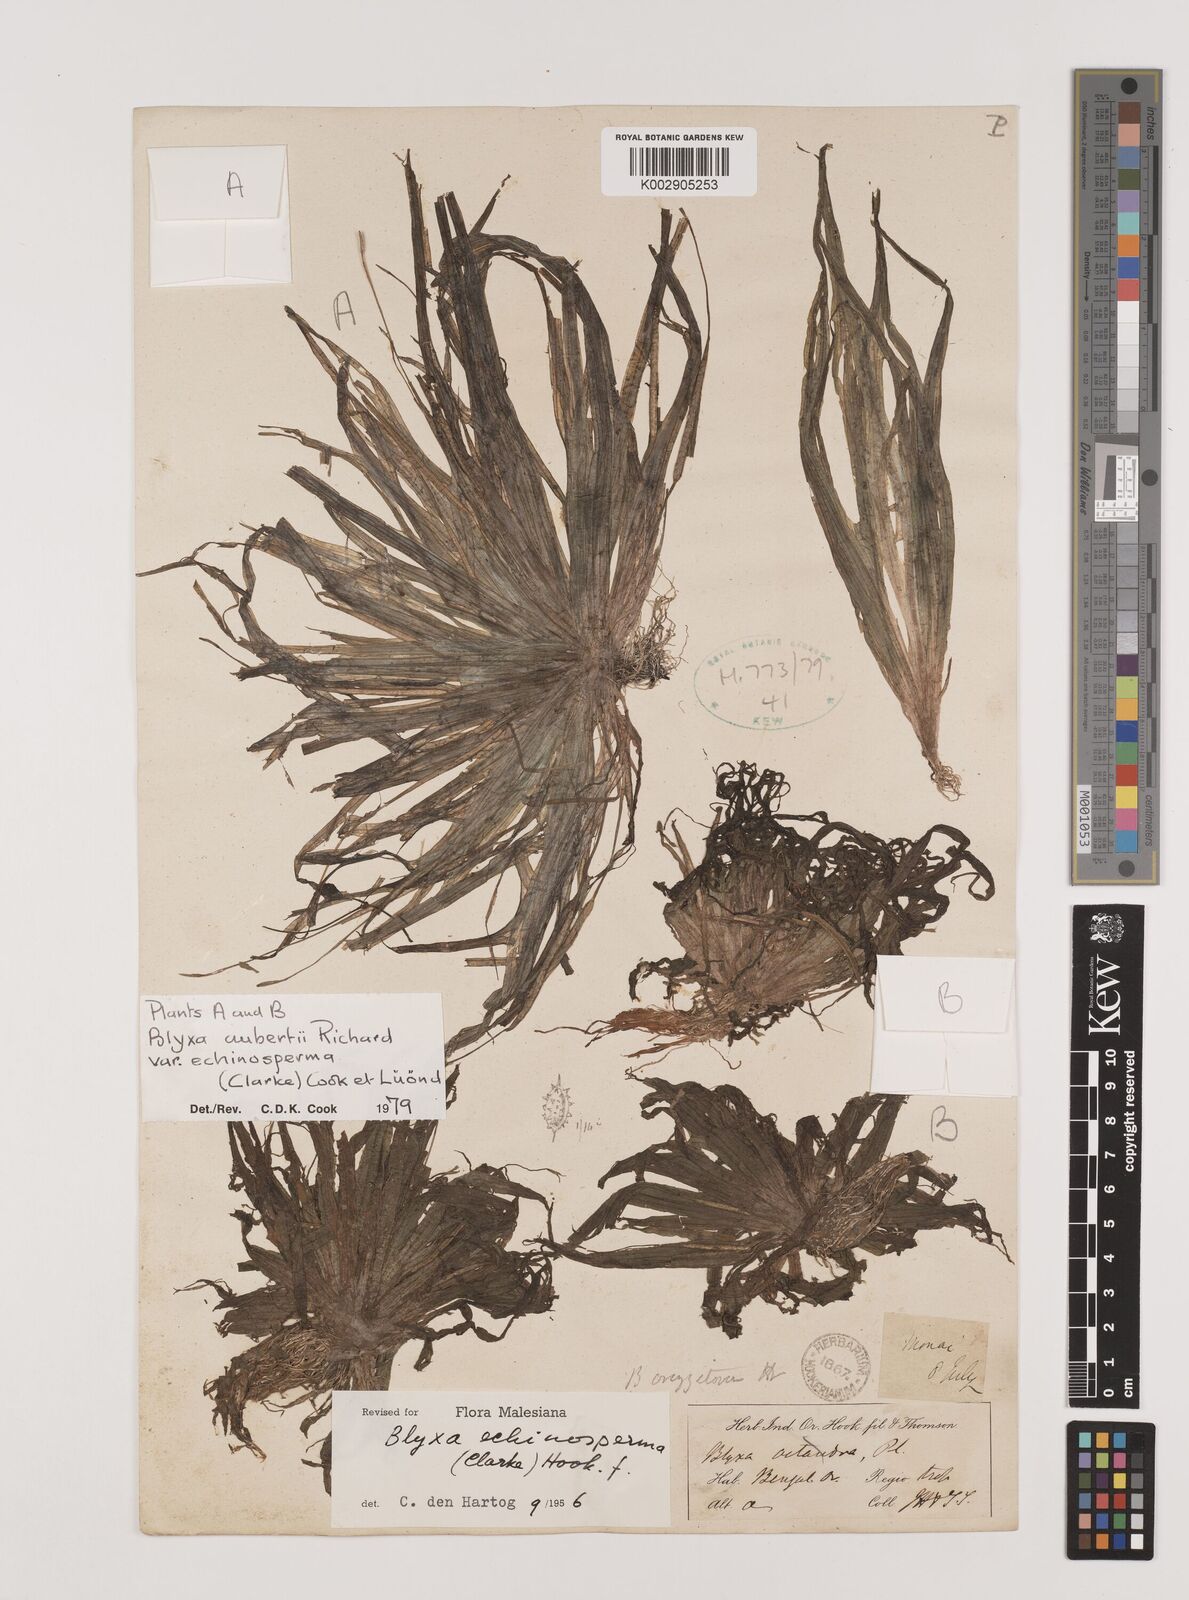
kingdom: Plantae
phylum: Tracheophyta
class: Liliopsida
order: Alismatales
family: Hydrocharitaceae
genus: Blyxa
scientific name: Blyxa echinosperma
